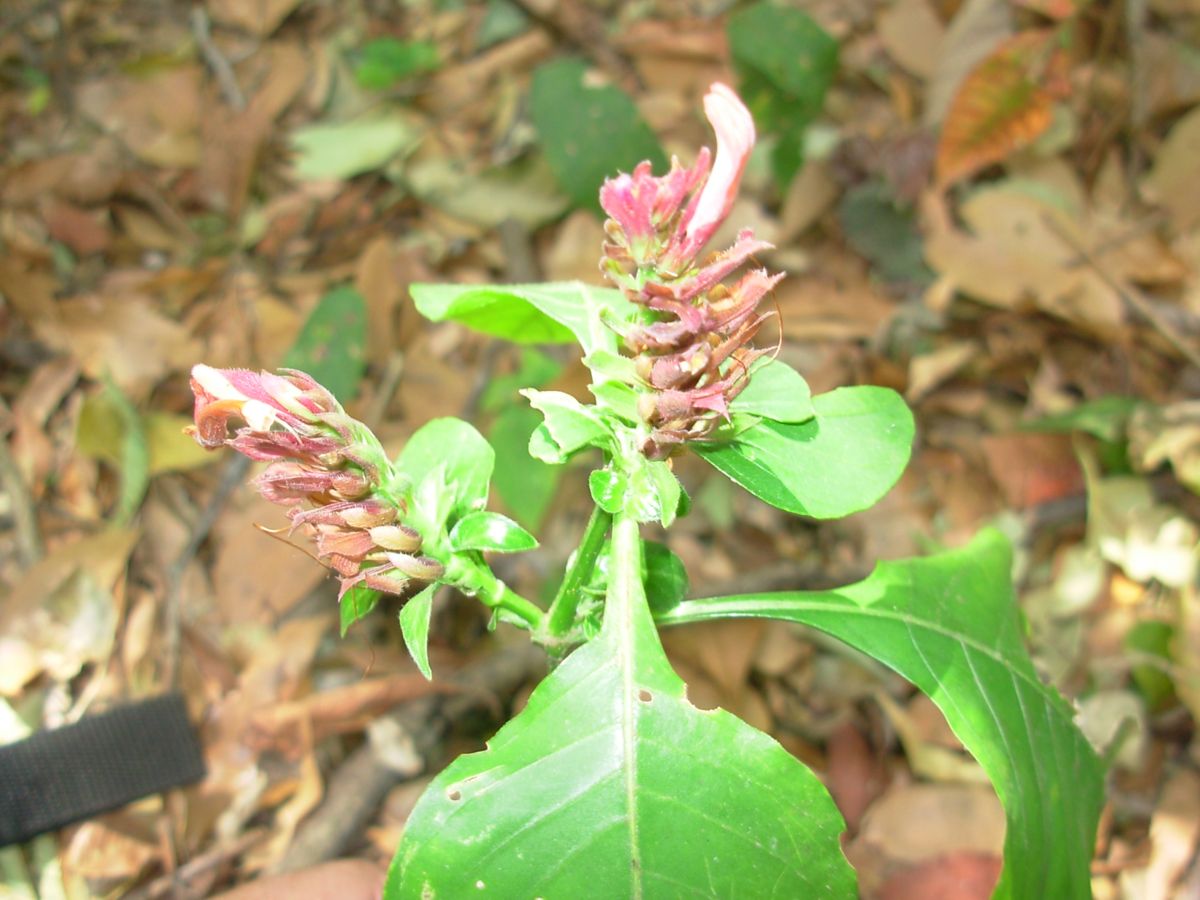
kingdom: Plantae
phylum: Tracheophyta
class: Magnoliopsida
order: Lamiales
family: Acanthaceae
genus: Lepidagathis
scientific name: Lepidagathis guatemalensis
